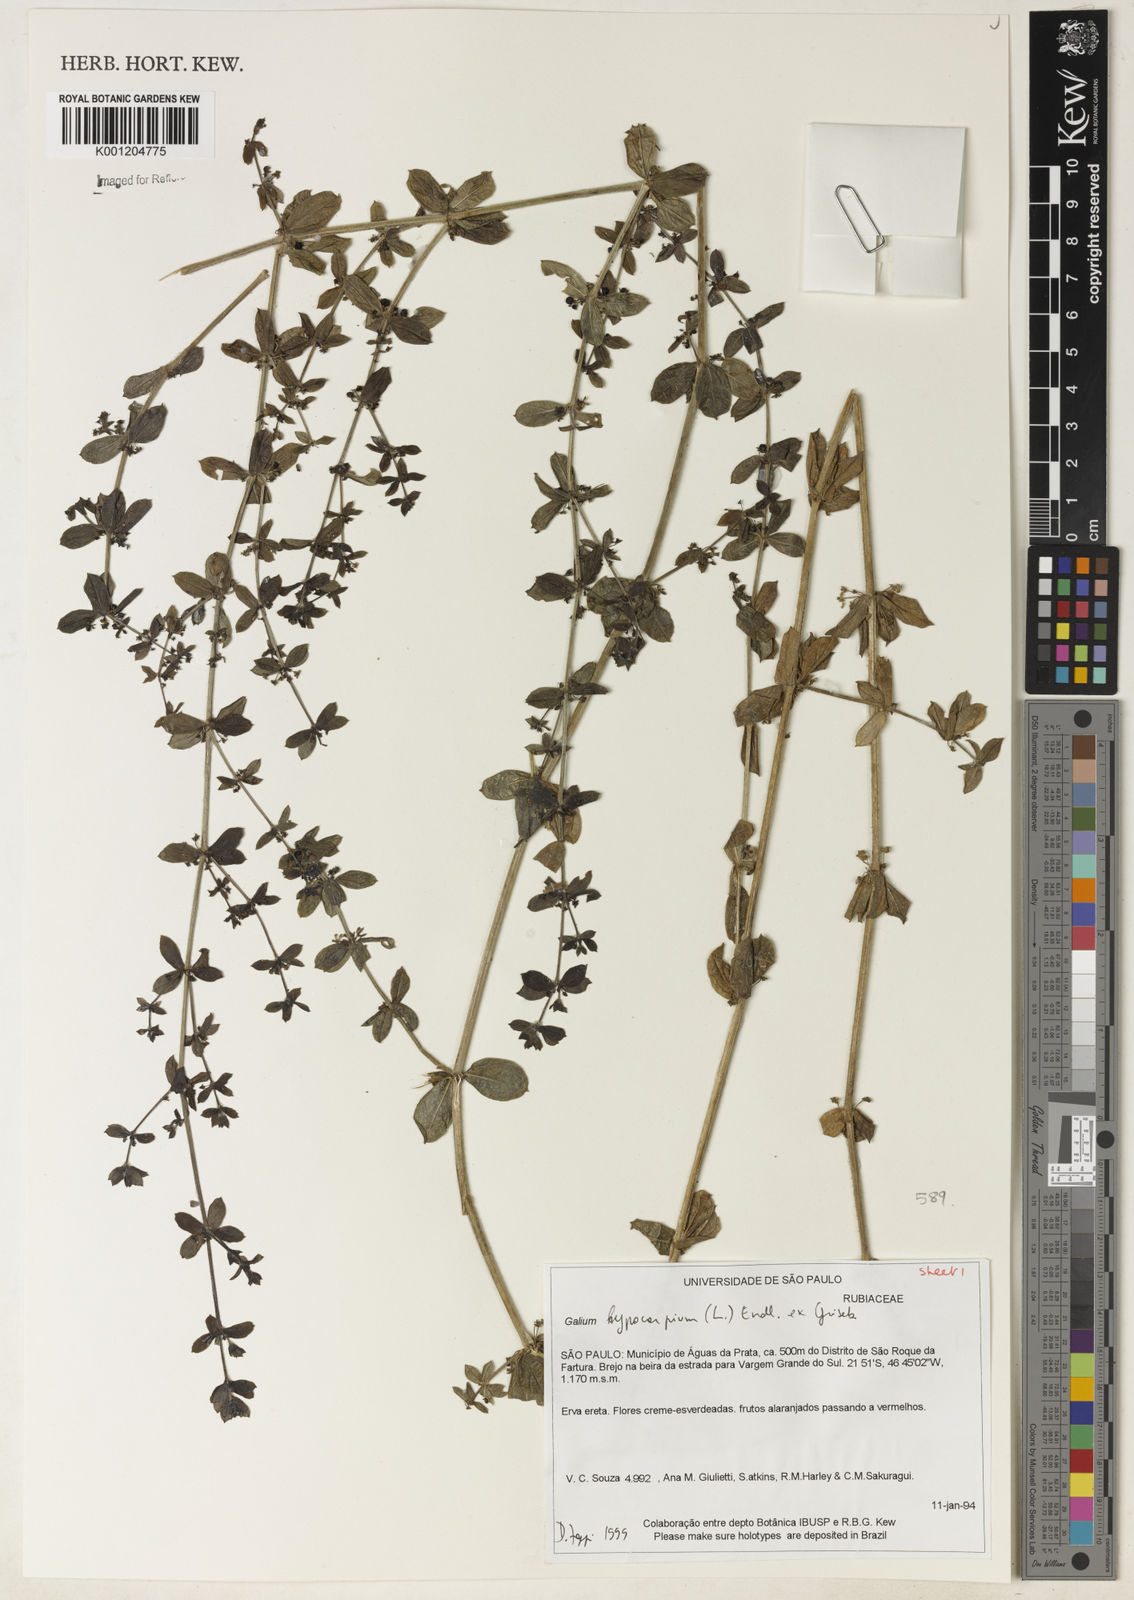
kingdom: Plantae
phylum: Tracheophyta
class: Magnoliopsida
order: Gentianales
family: Rubiaceae
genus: Galium
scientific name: Galium hypocarpium
